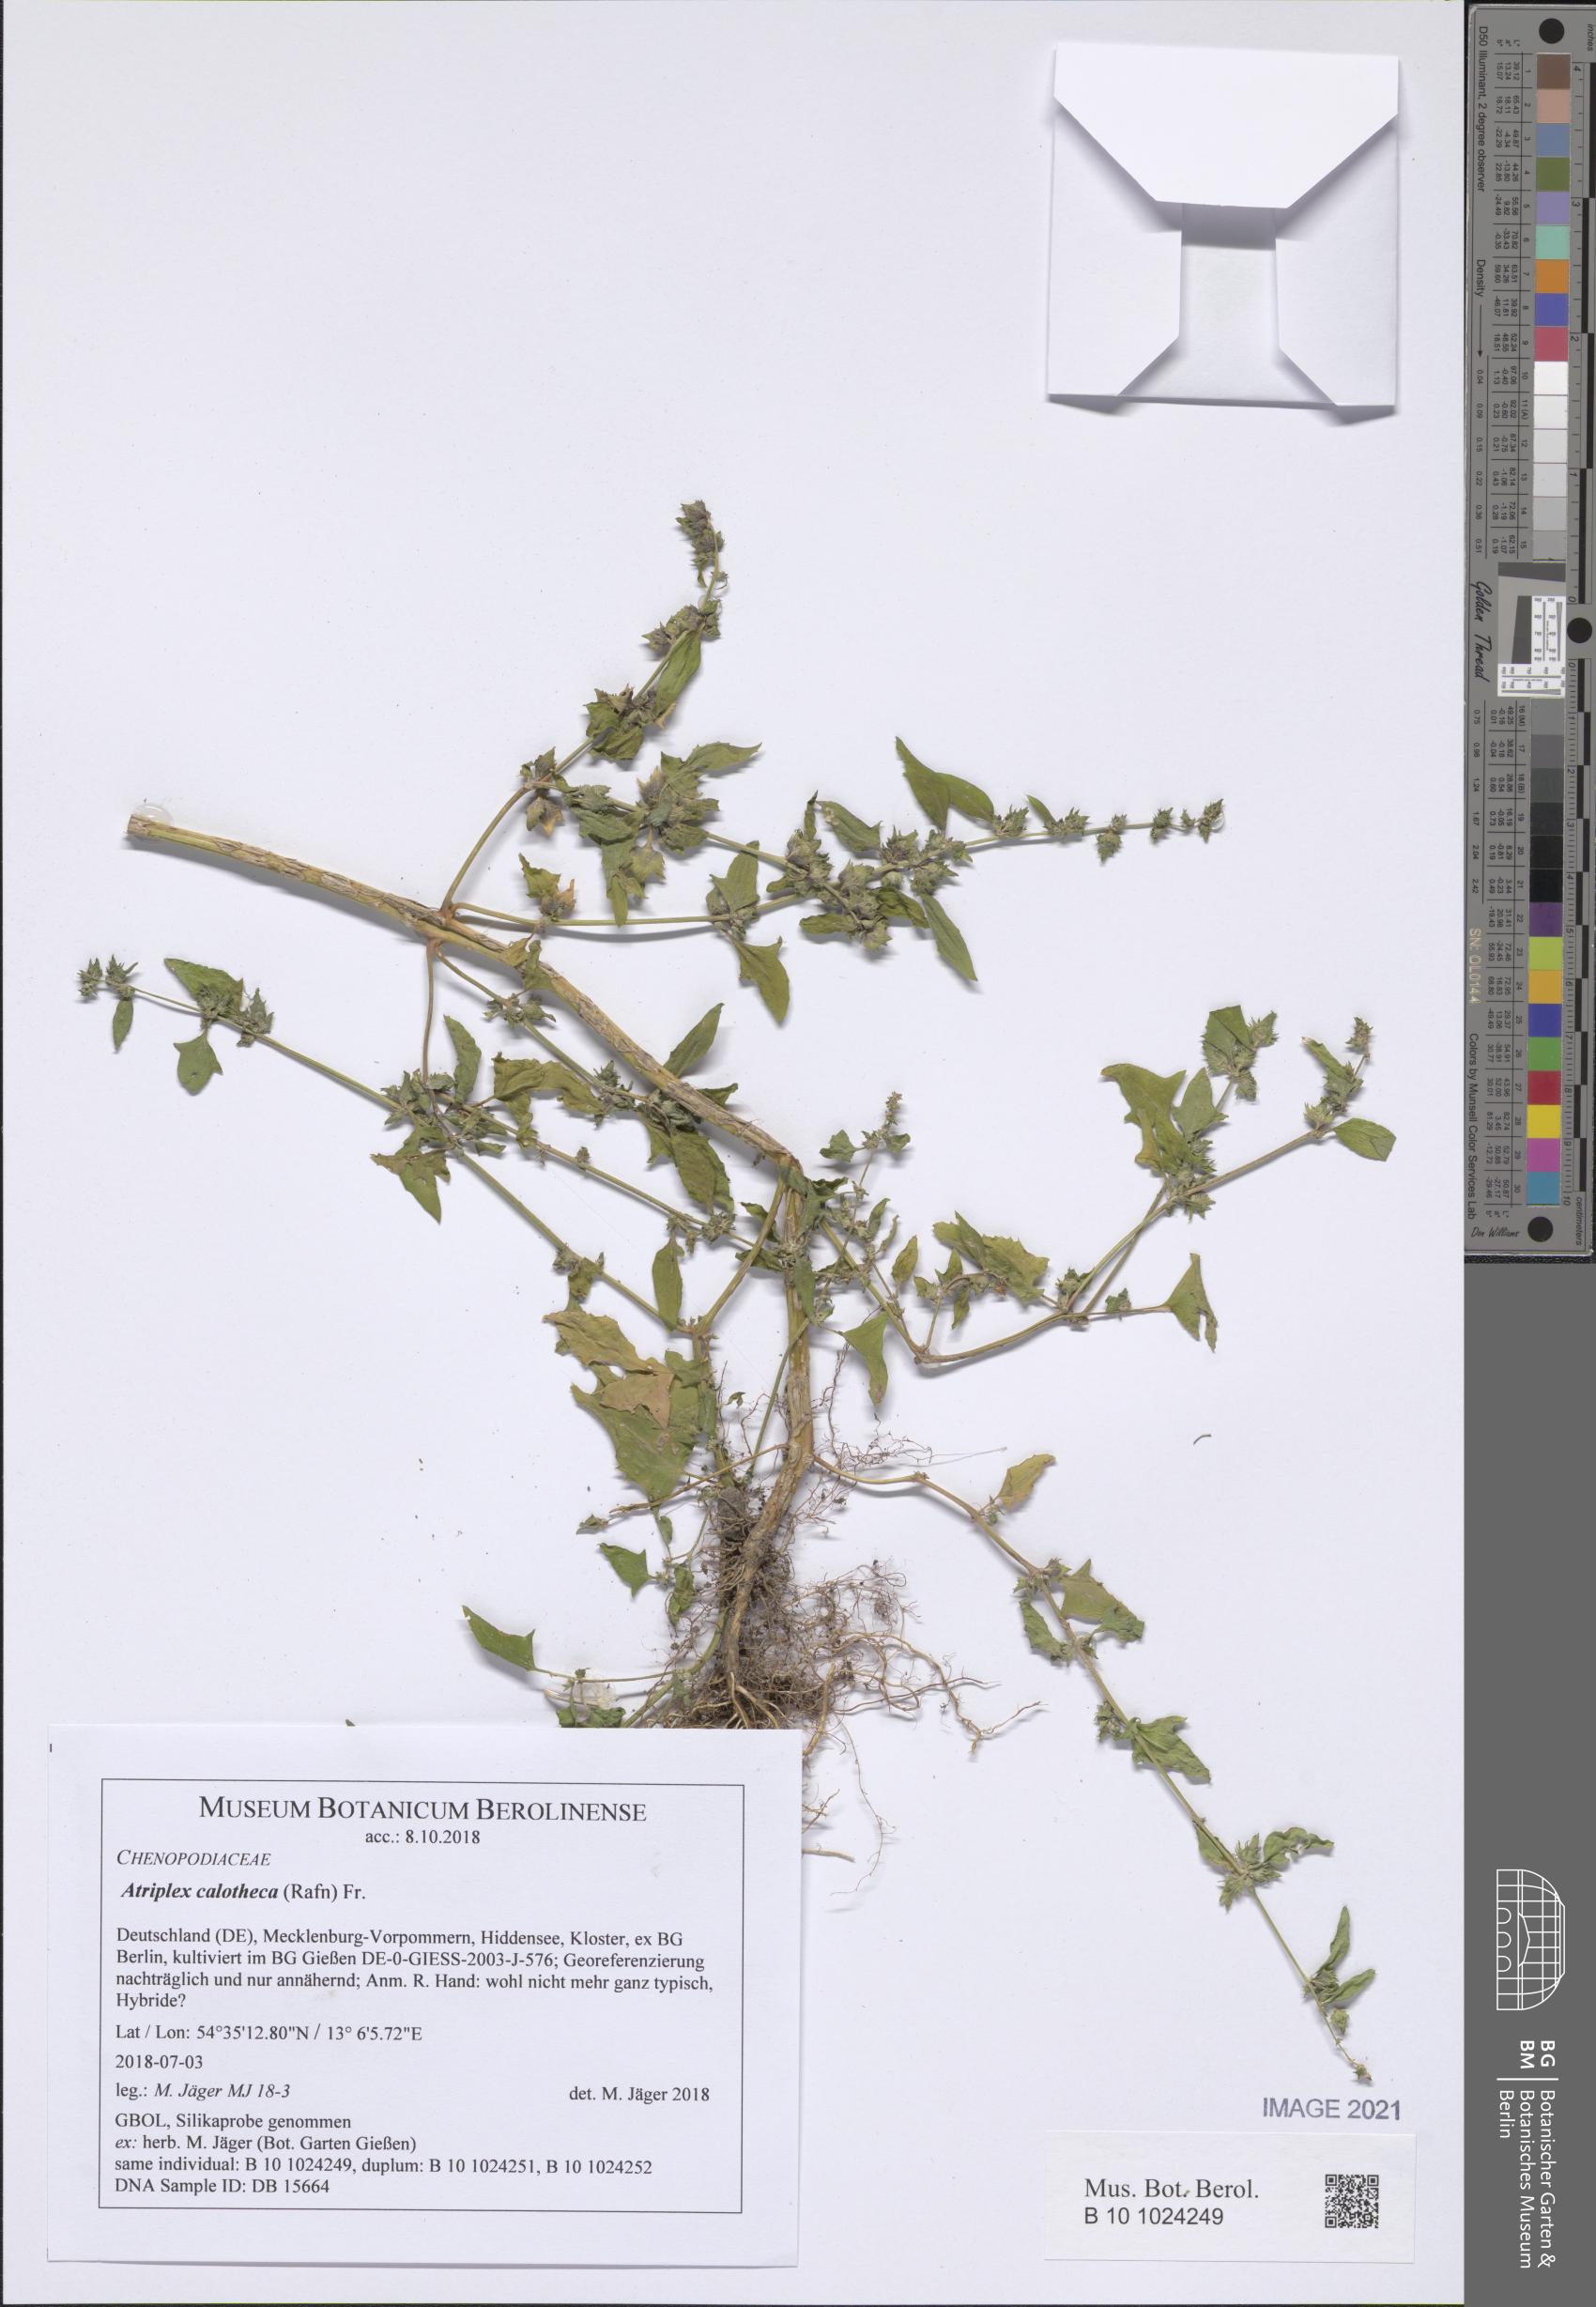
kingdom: Plantae
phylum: Tracheophyta
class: Magnoliopsida
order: Caryophyllales
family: Amaranthaceae
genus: Atriplex
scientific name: Atriplex calotheca
